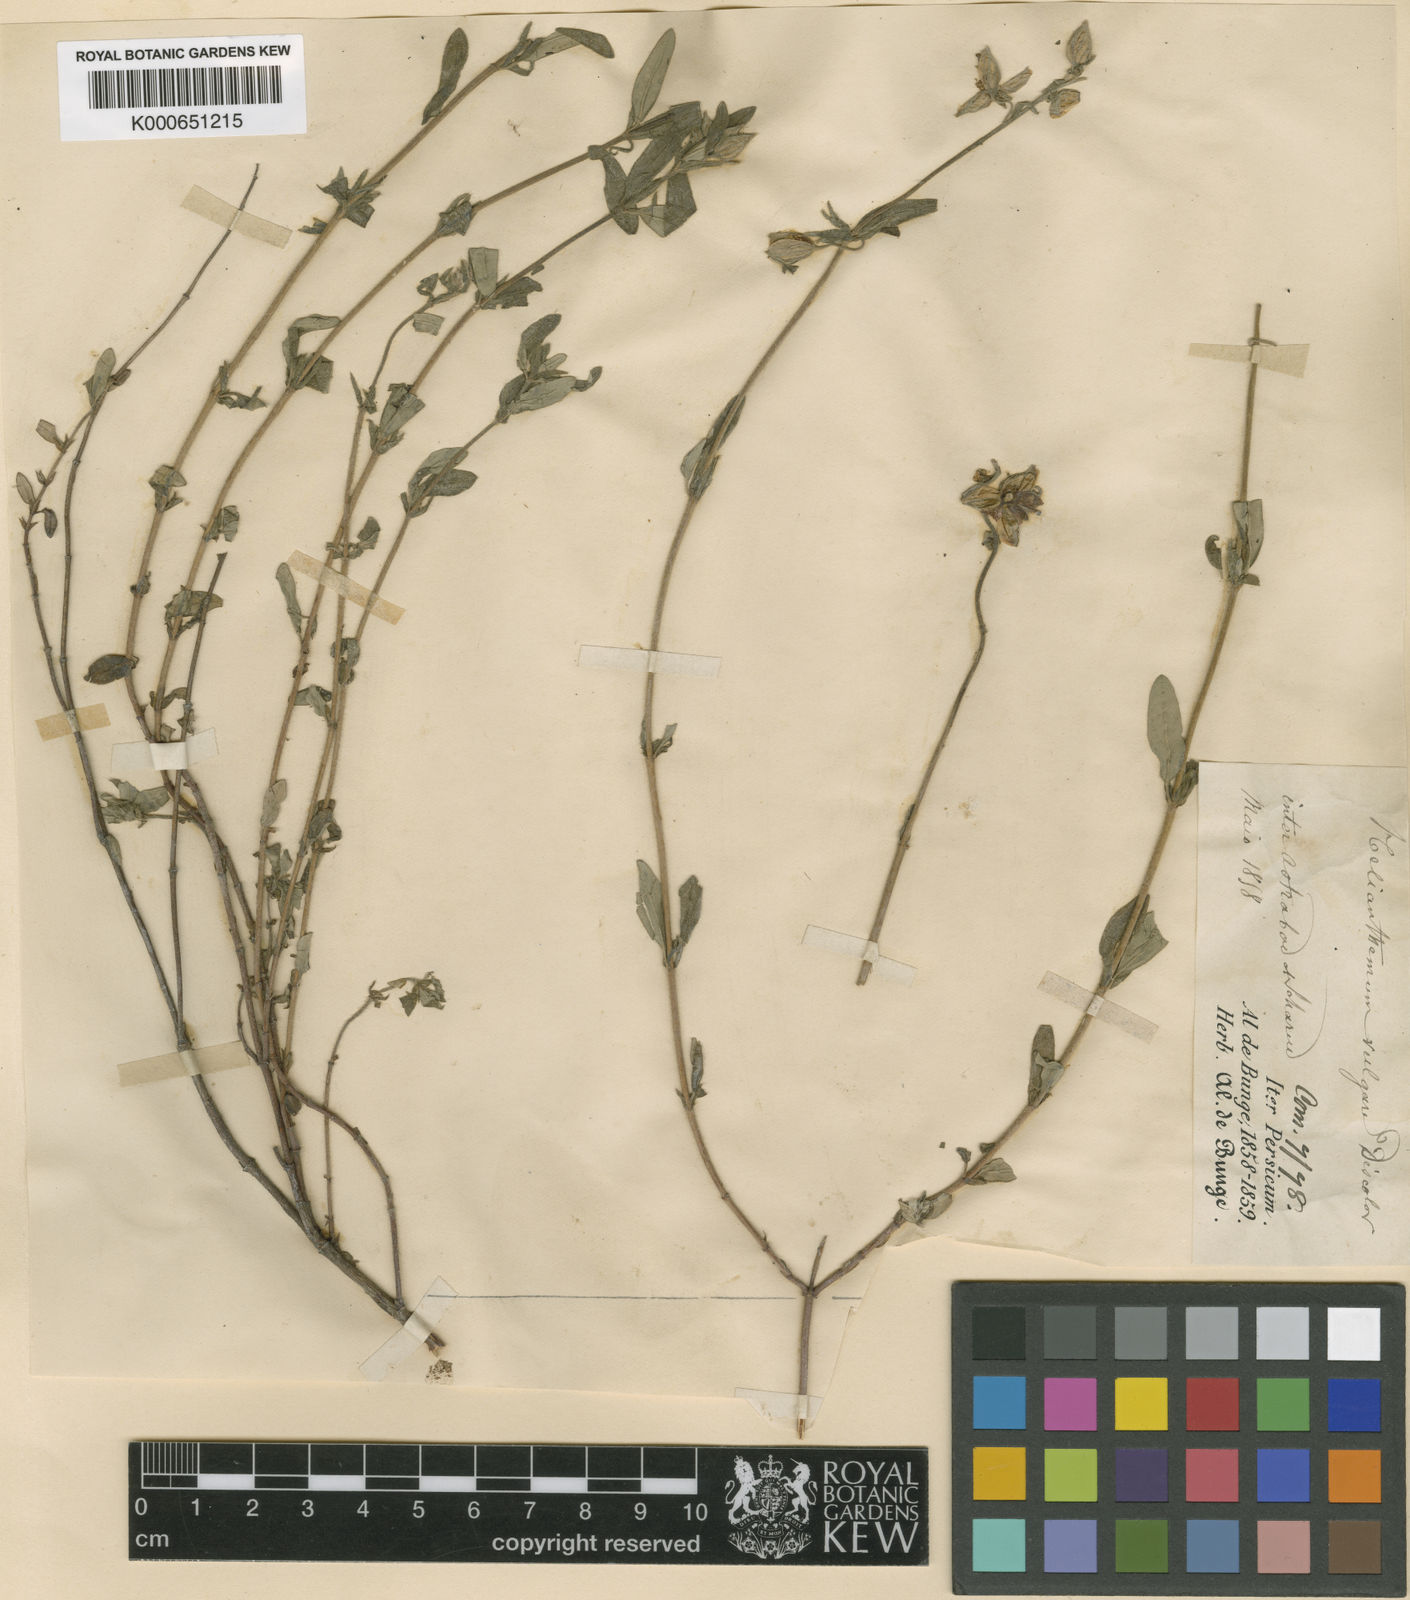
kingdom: Plantae
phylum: Tracheophyta
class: Magnoliopsida
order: Malvales
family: Cistaceae
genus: Helianthemum
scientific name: Helianthemum nummularium
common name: Common rock-rose
